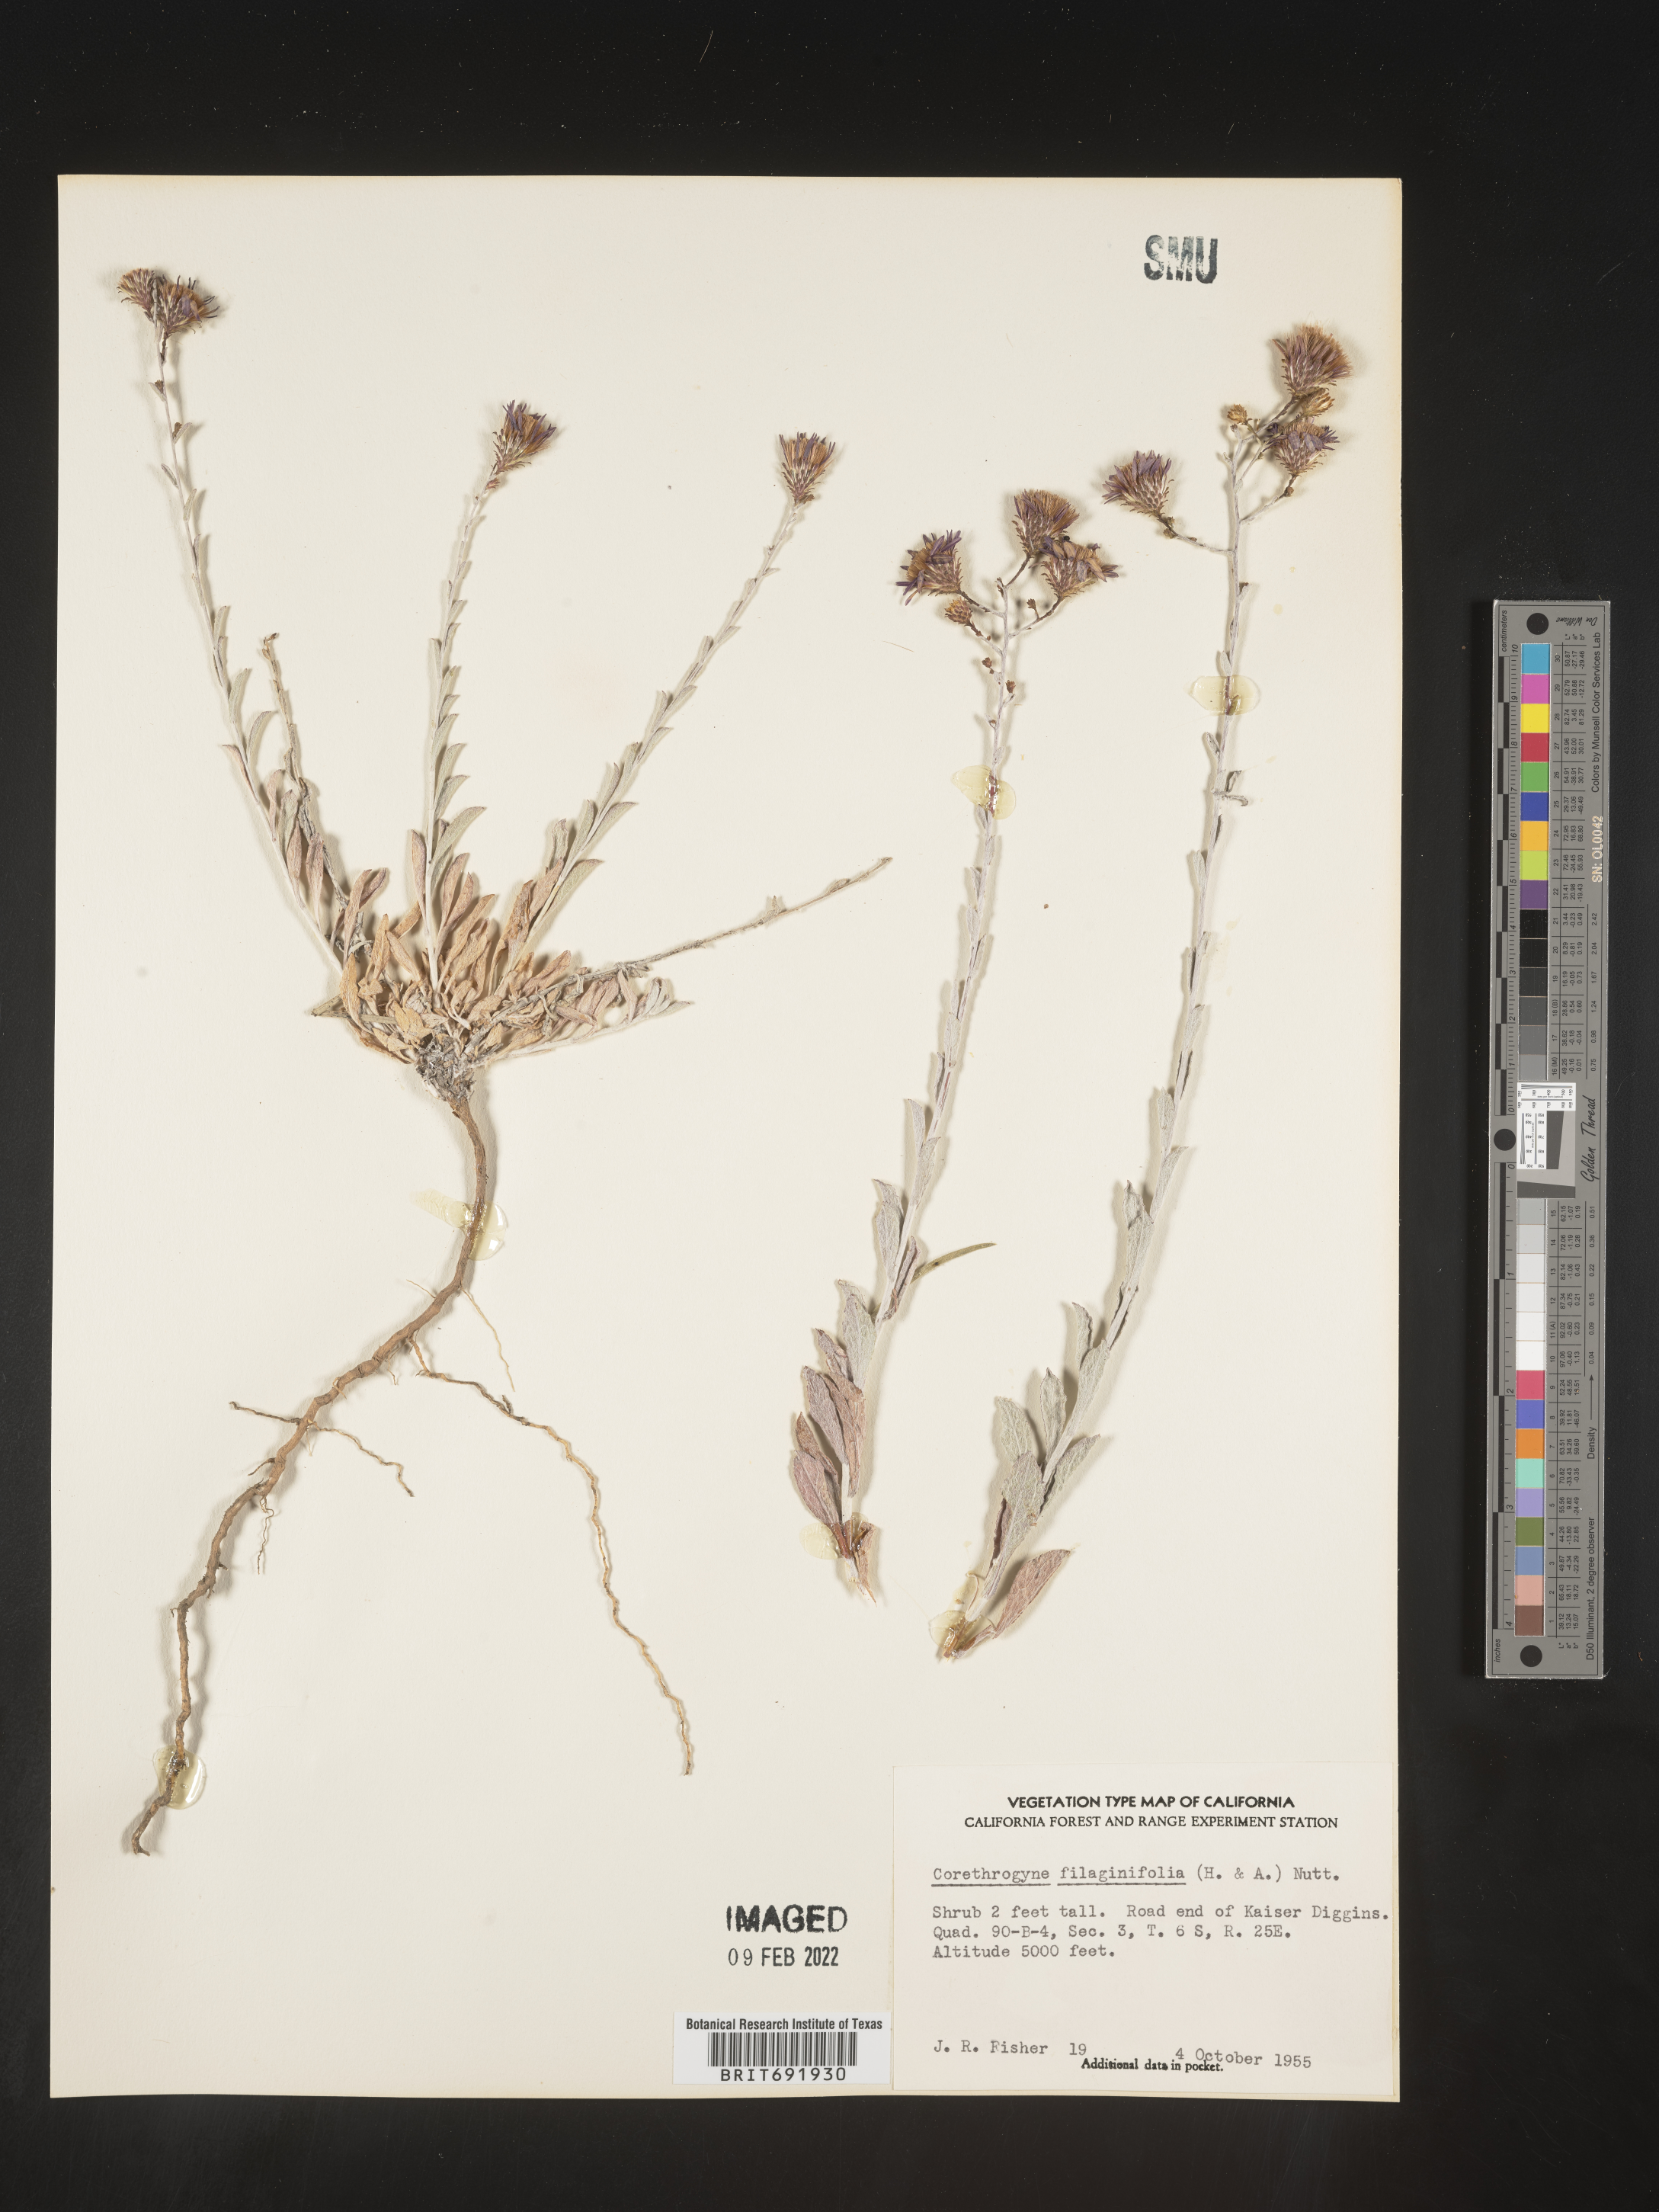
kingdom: Plantae
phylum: Tracheophyta
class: Magnoliopsida
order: Asterales
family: Asteraceae
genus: Corethrogyne
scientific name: Corethrogyne
